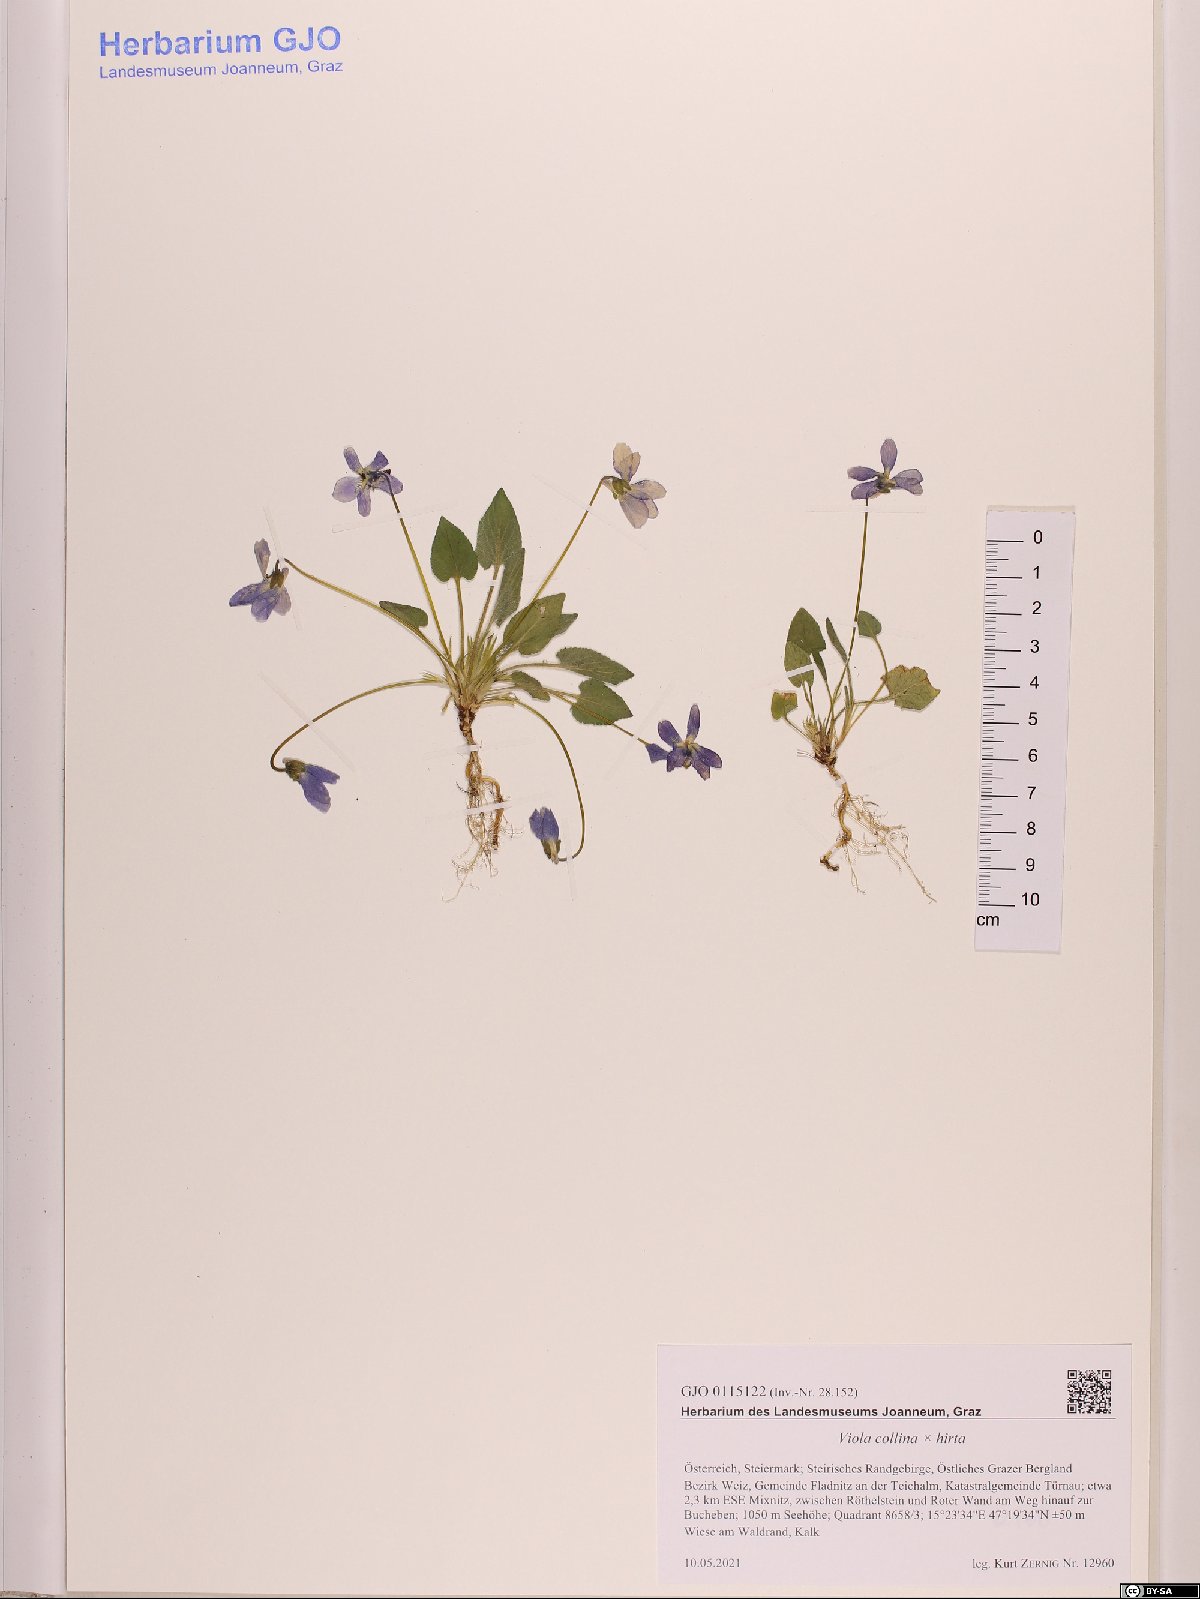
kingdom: Plantae
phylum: Tracheophyta
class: Magnoliopsida
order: Malpighiales
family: Violaceae
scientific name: Violaceae
